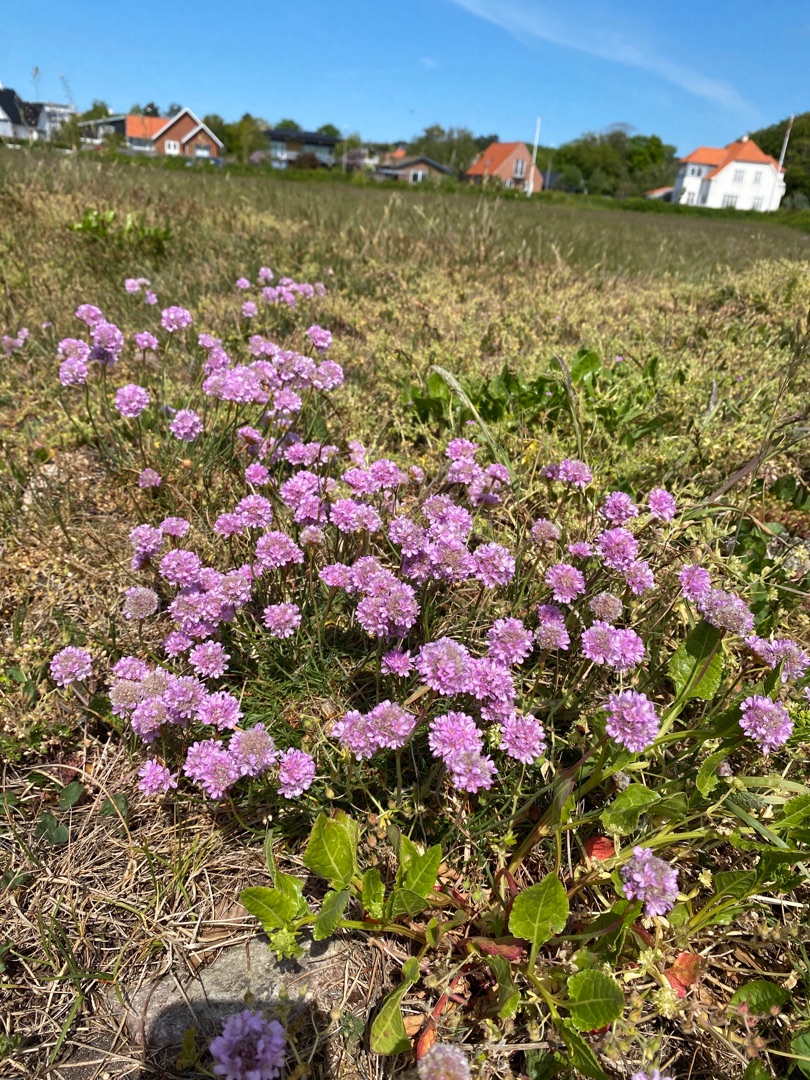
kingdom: Plantae
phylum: Tracheophyta
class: Magnoliopsida
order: Caryophyllales
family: Plumbaginaceae
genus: Armeria
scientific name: Armeria maritima
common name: Engelskgræs
